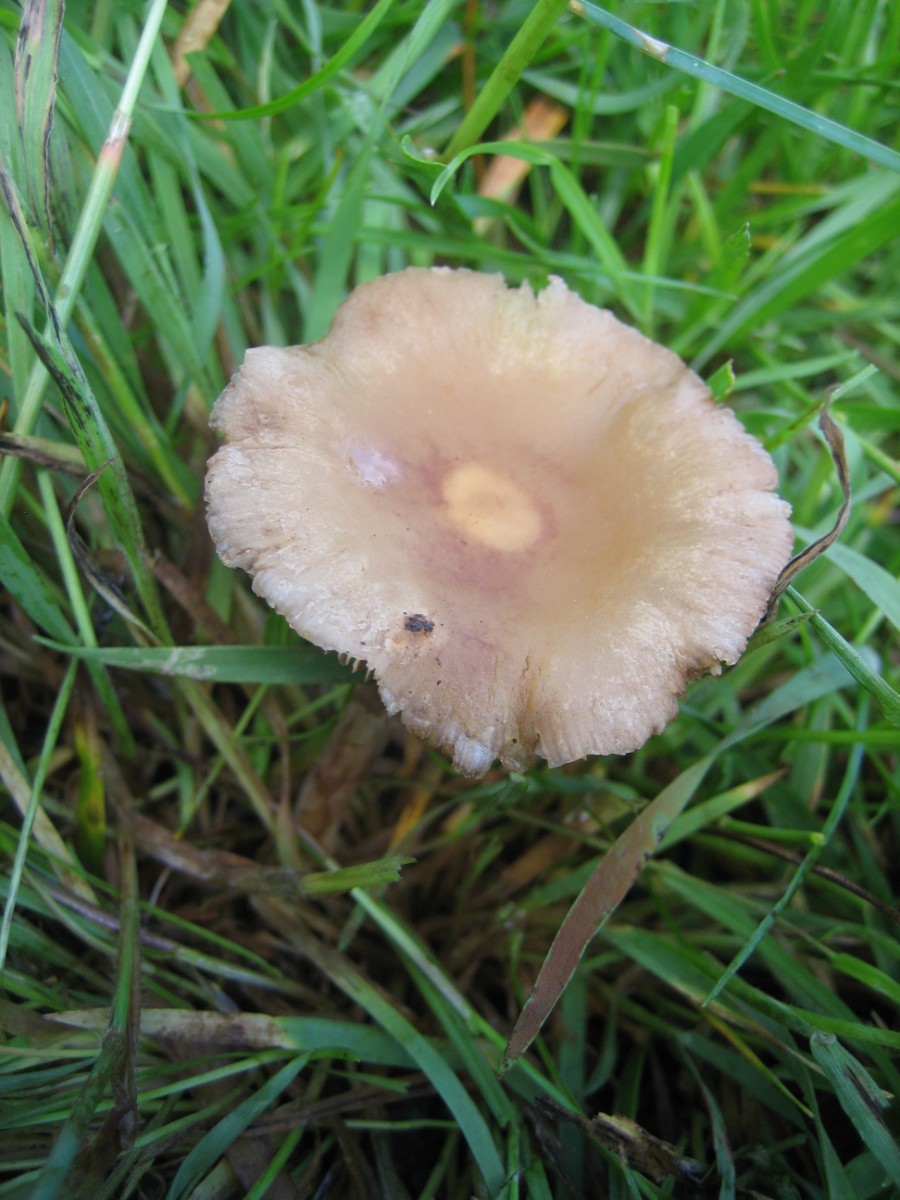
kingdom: Fungi
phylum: Basidiomycota
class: Agaricomycetes
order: Agaricales
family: Strophariaceae
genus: Agrocybe
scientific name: Agrocybe
